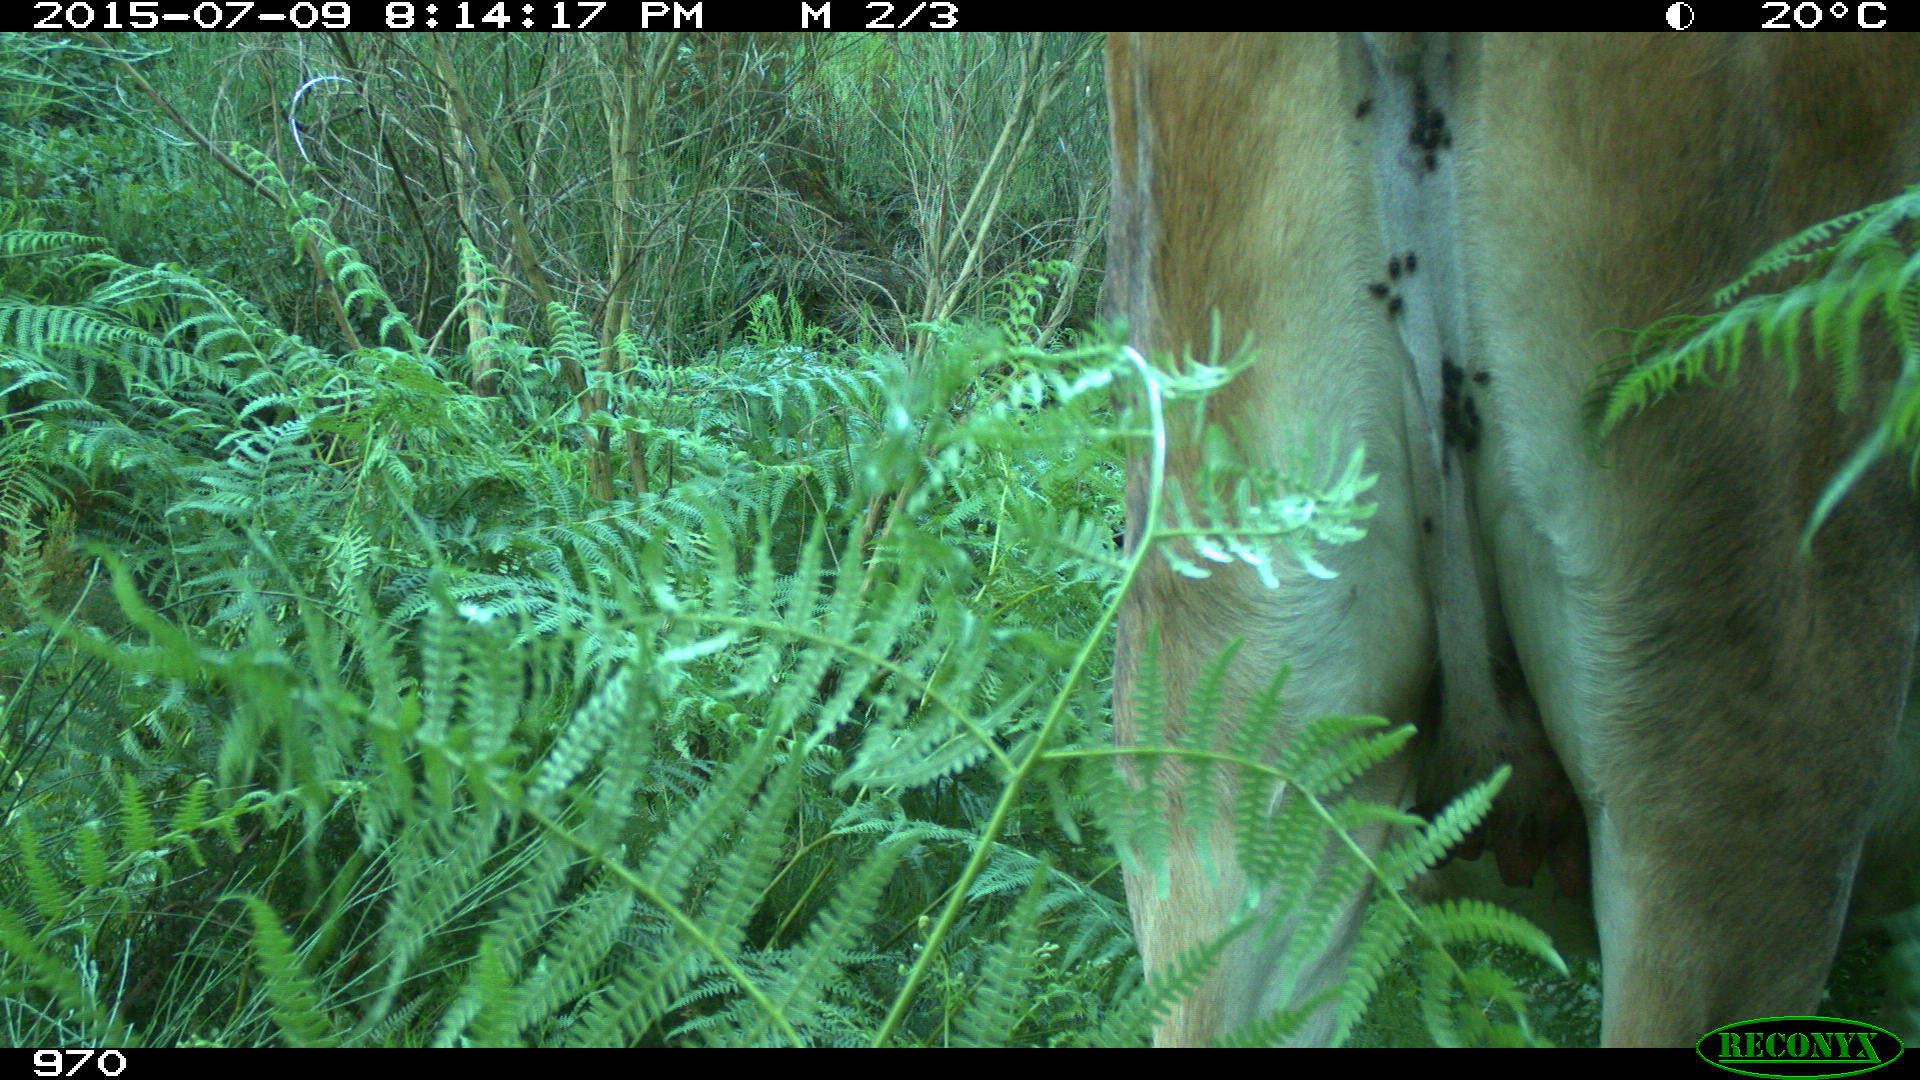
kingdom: Animalia
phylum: Chordata
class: Mammalia
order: Artiodactyla
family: Bovidae
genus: Bos
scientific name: Bos taurus
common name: Domesticated cattle
